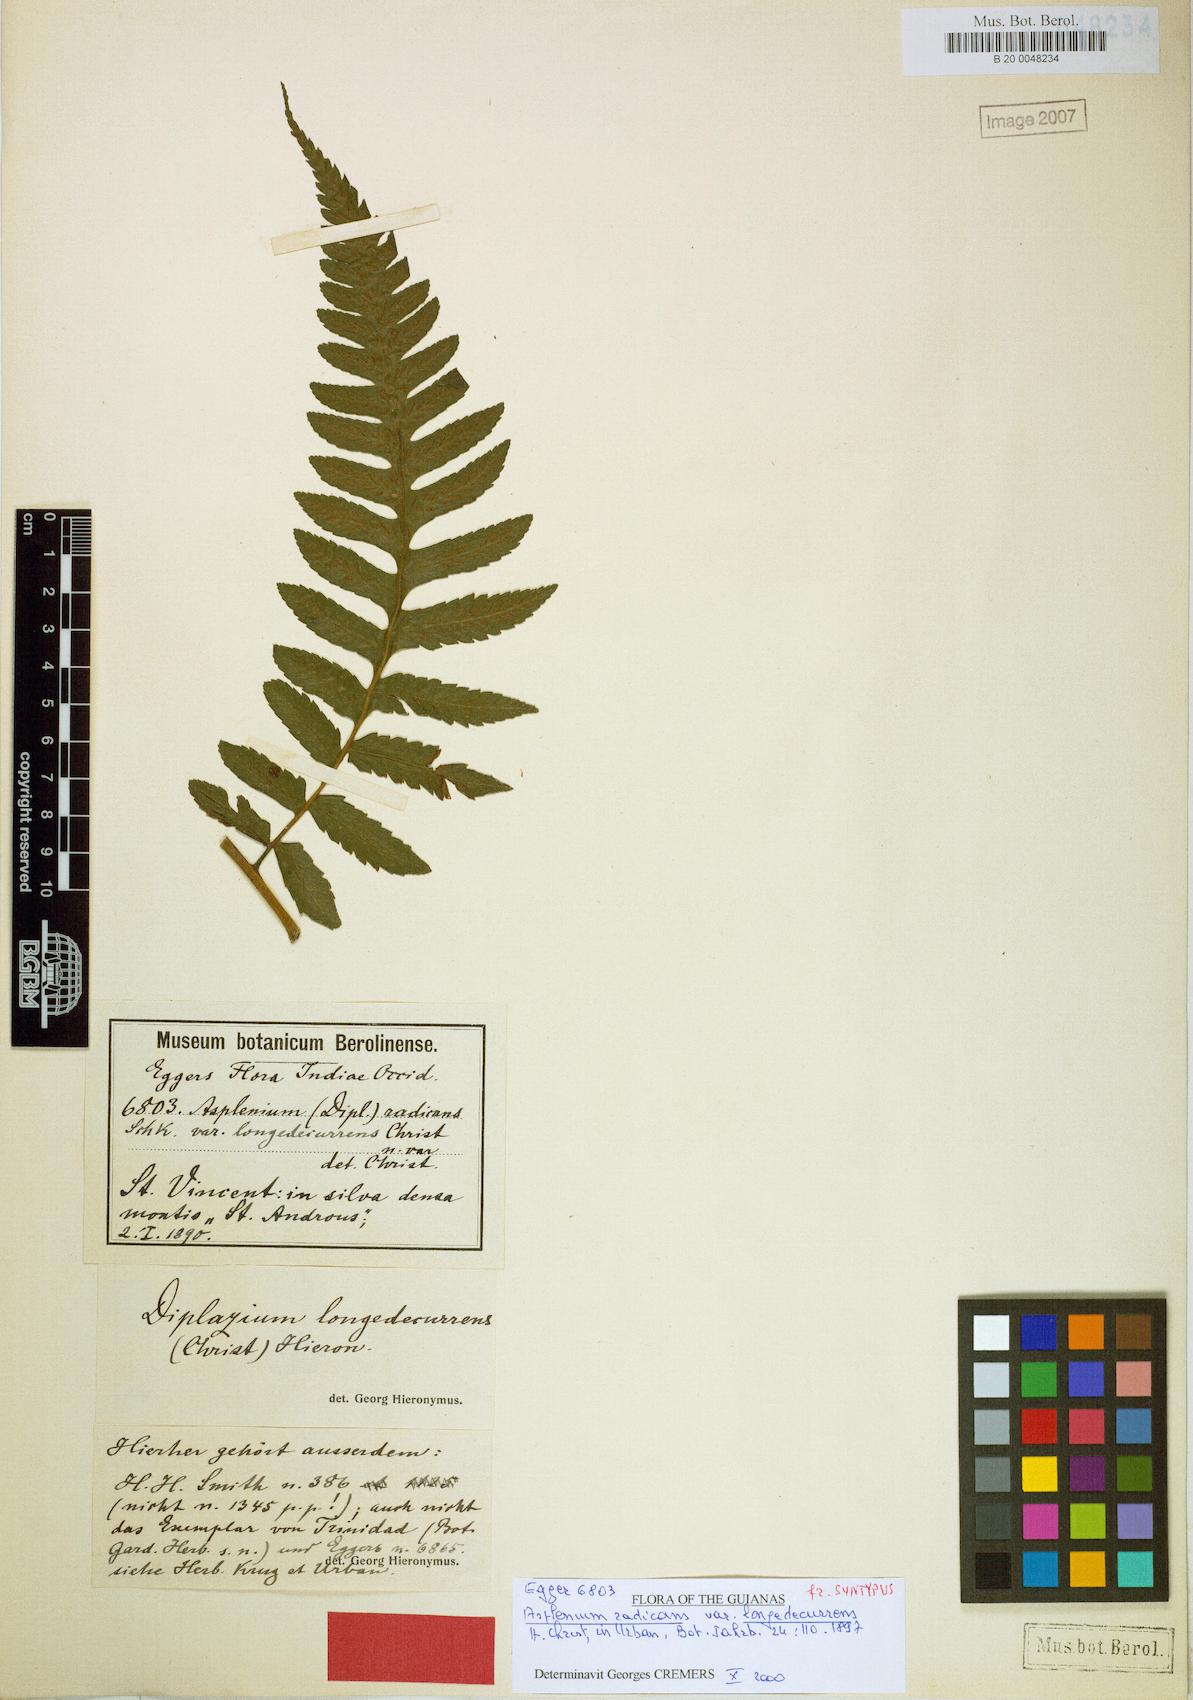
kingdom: Plantae
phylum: Tracheophyta
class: Polypodiopsida
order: Polypodiales
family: Athyriaceae
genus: Diplazium
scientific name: Diplazium
